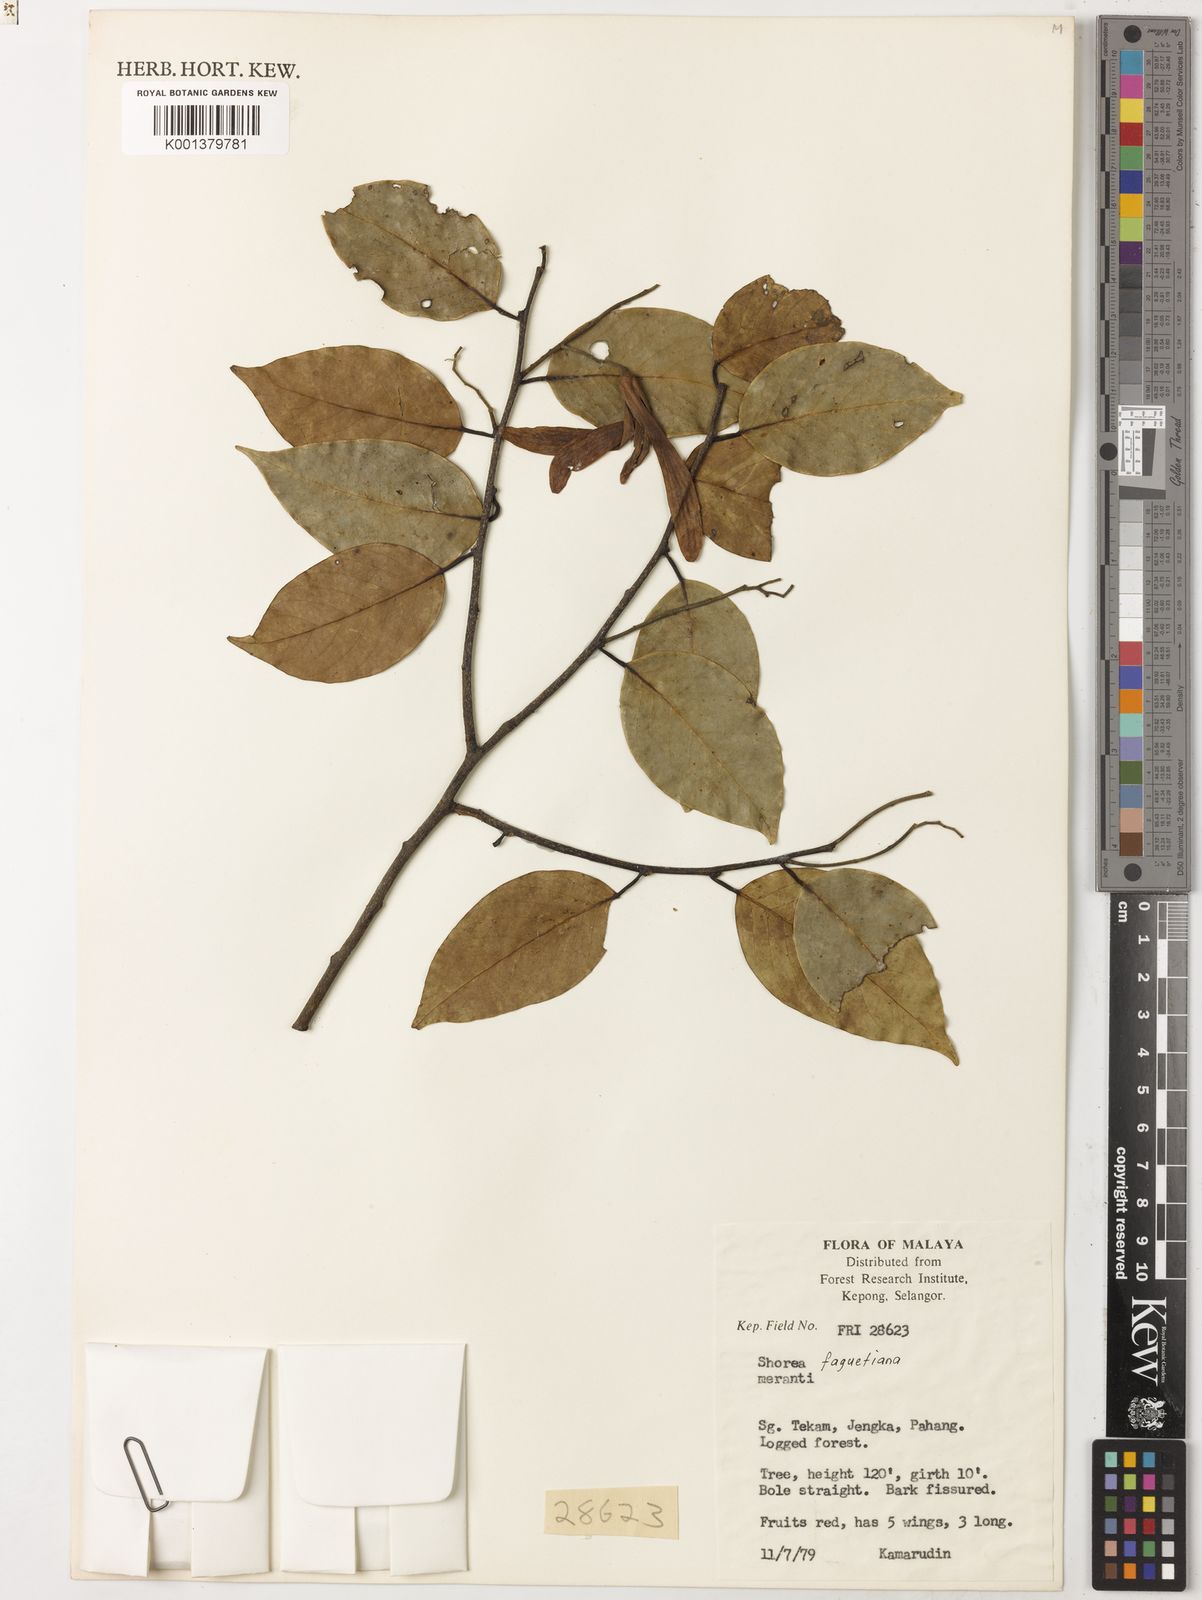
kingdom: Plantae
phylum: Tracheophyta
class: Magnoliopsida
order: Apiales
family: Araliaceae
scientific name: Araliaceae
